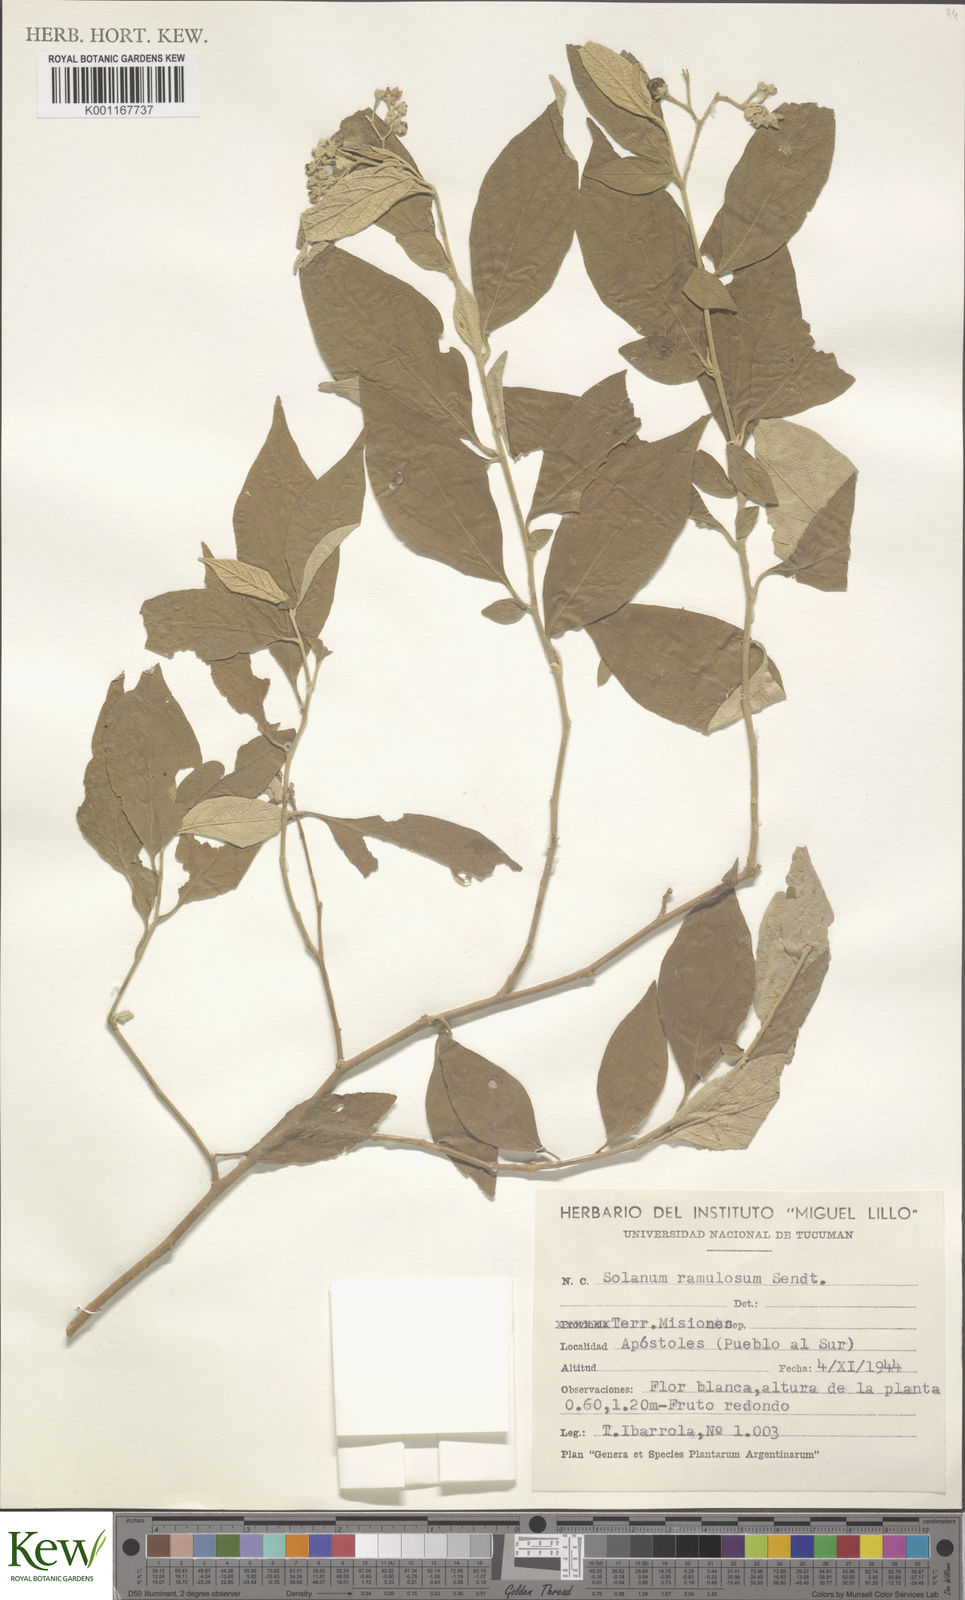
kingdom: Plantae
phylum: Tracheophyta
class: Magnoliopsida
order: Solanales
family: Solanaceae
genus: Solanum
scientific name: Solanum ramulosum
